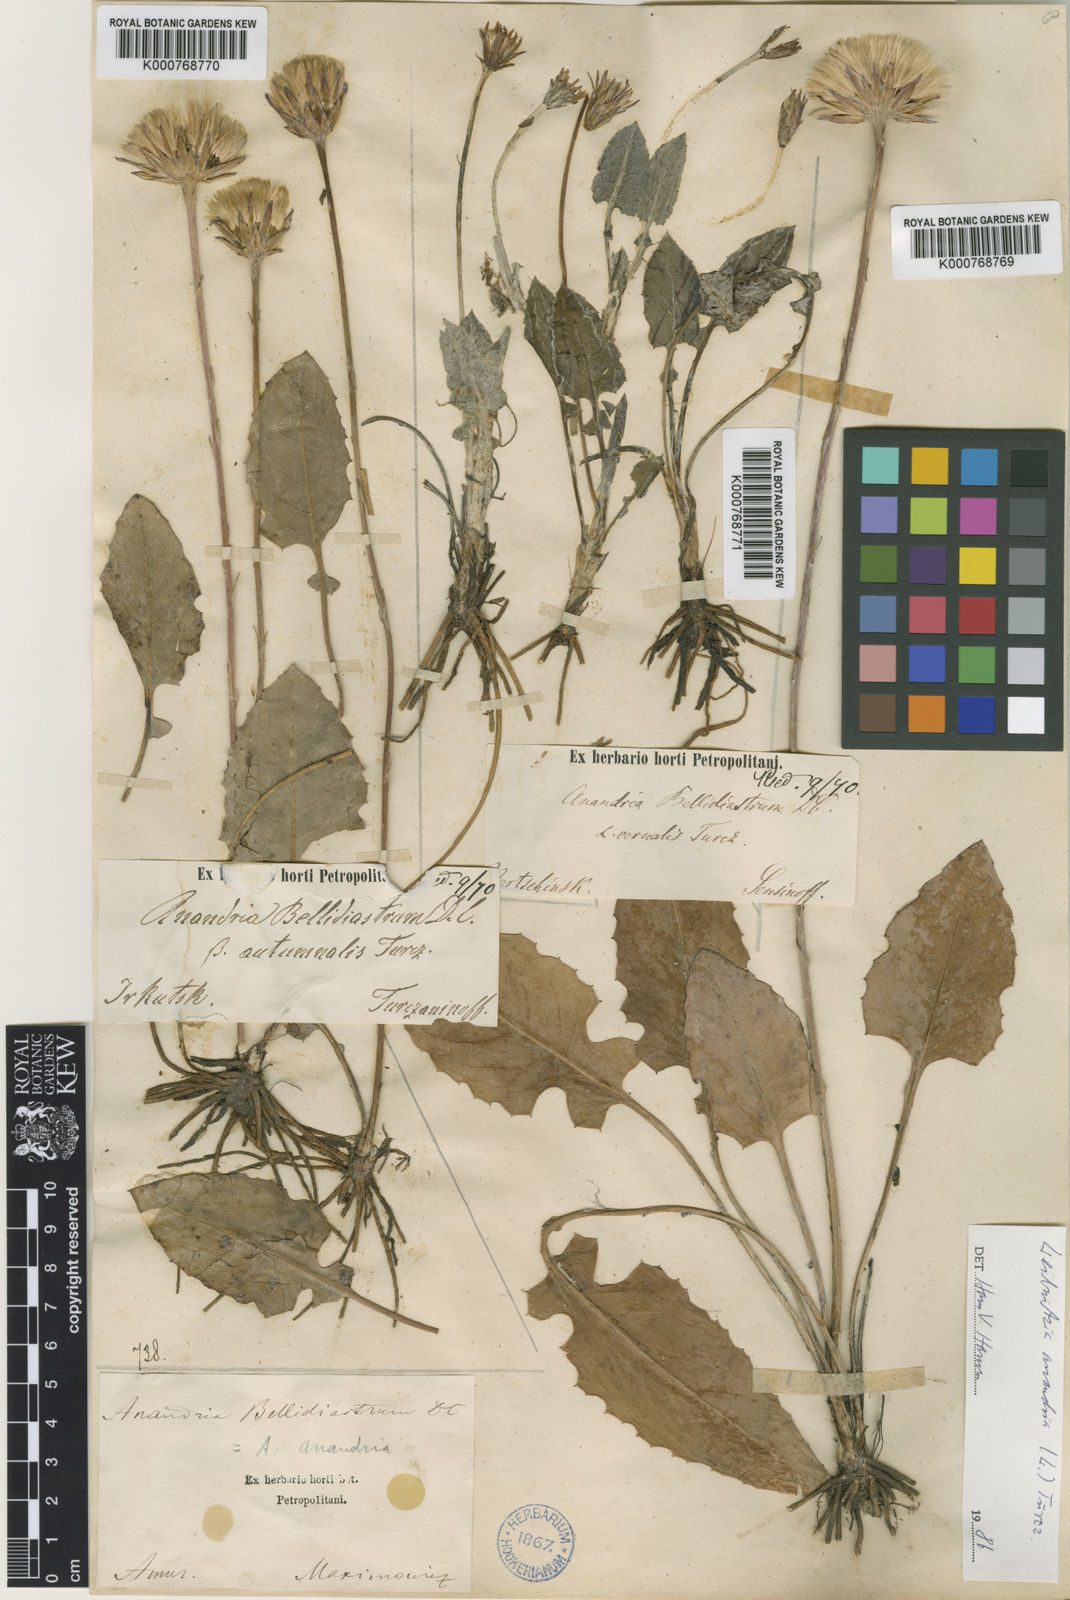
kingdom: Plantae
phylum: Tracheophyta
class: Magnoliopsida
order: Asterales
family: Asteraceae
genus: Leibnitzia
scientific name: Leibnitzia
